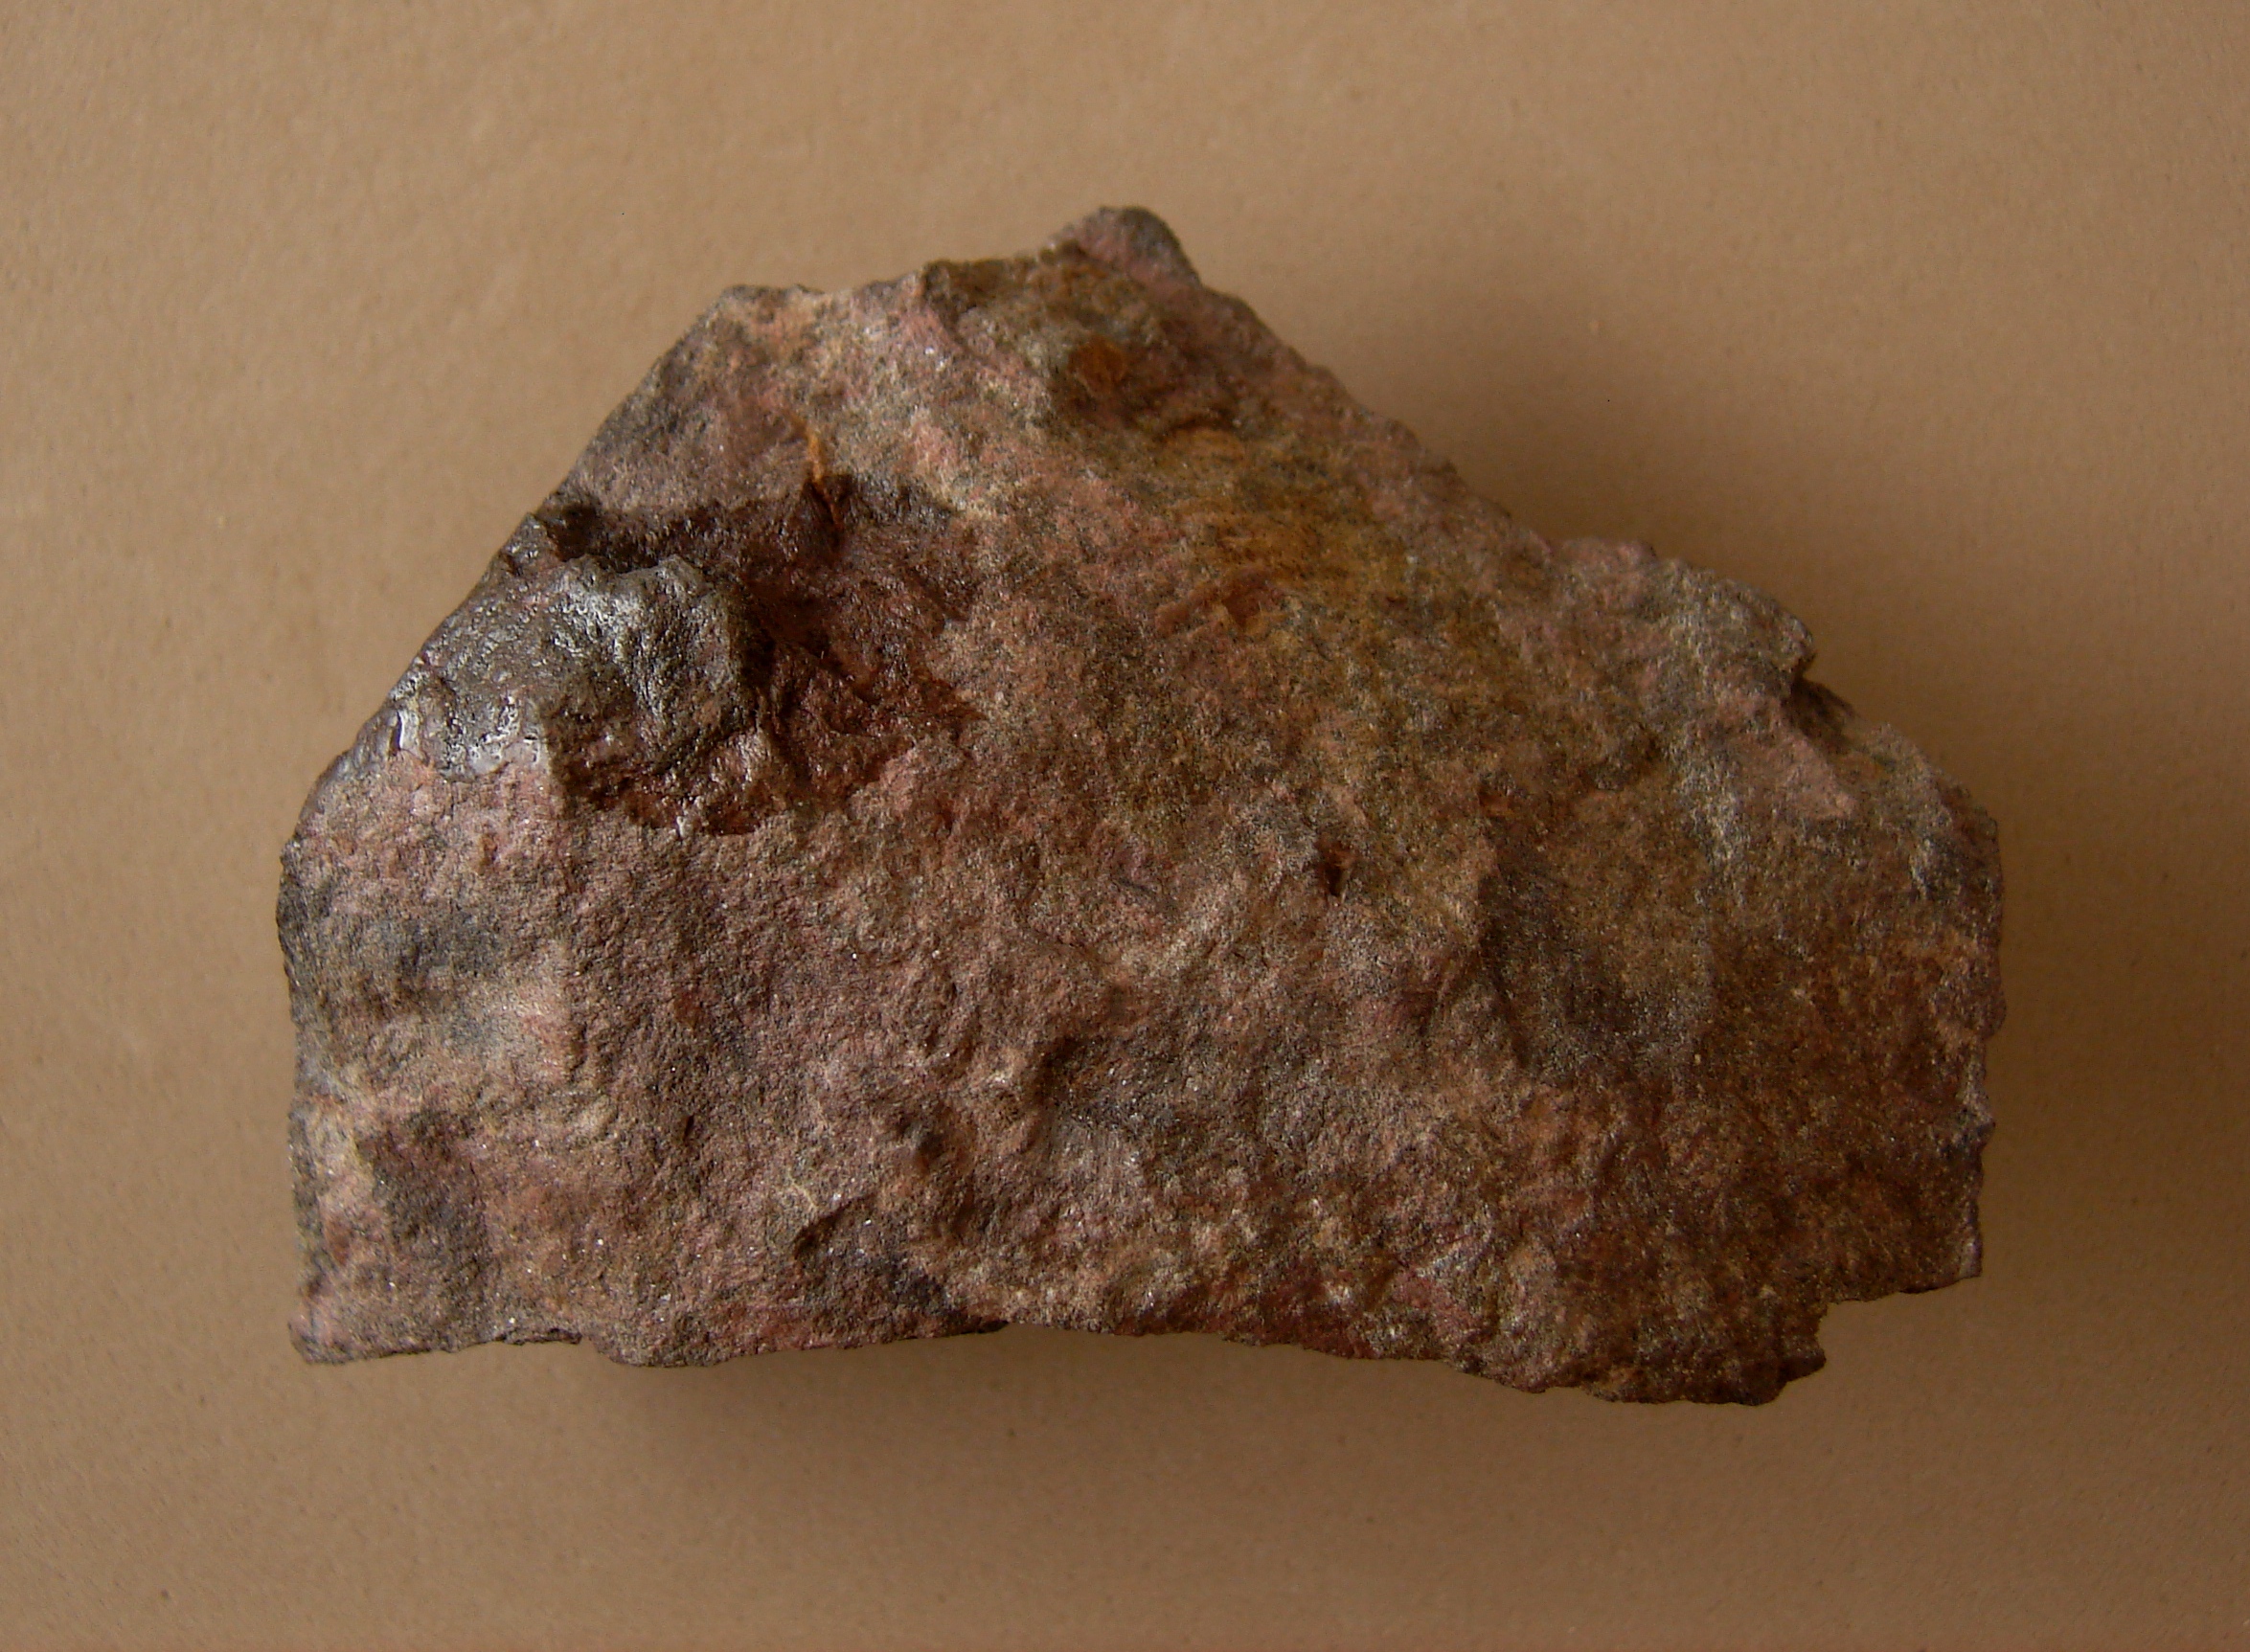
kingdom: Animalia
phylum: Brachiopoda
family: Douvillinidae
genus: Protodouvillina
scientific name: Protodouvillina
